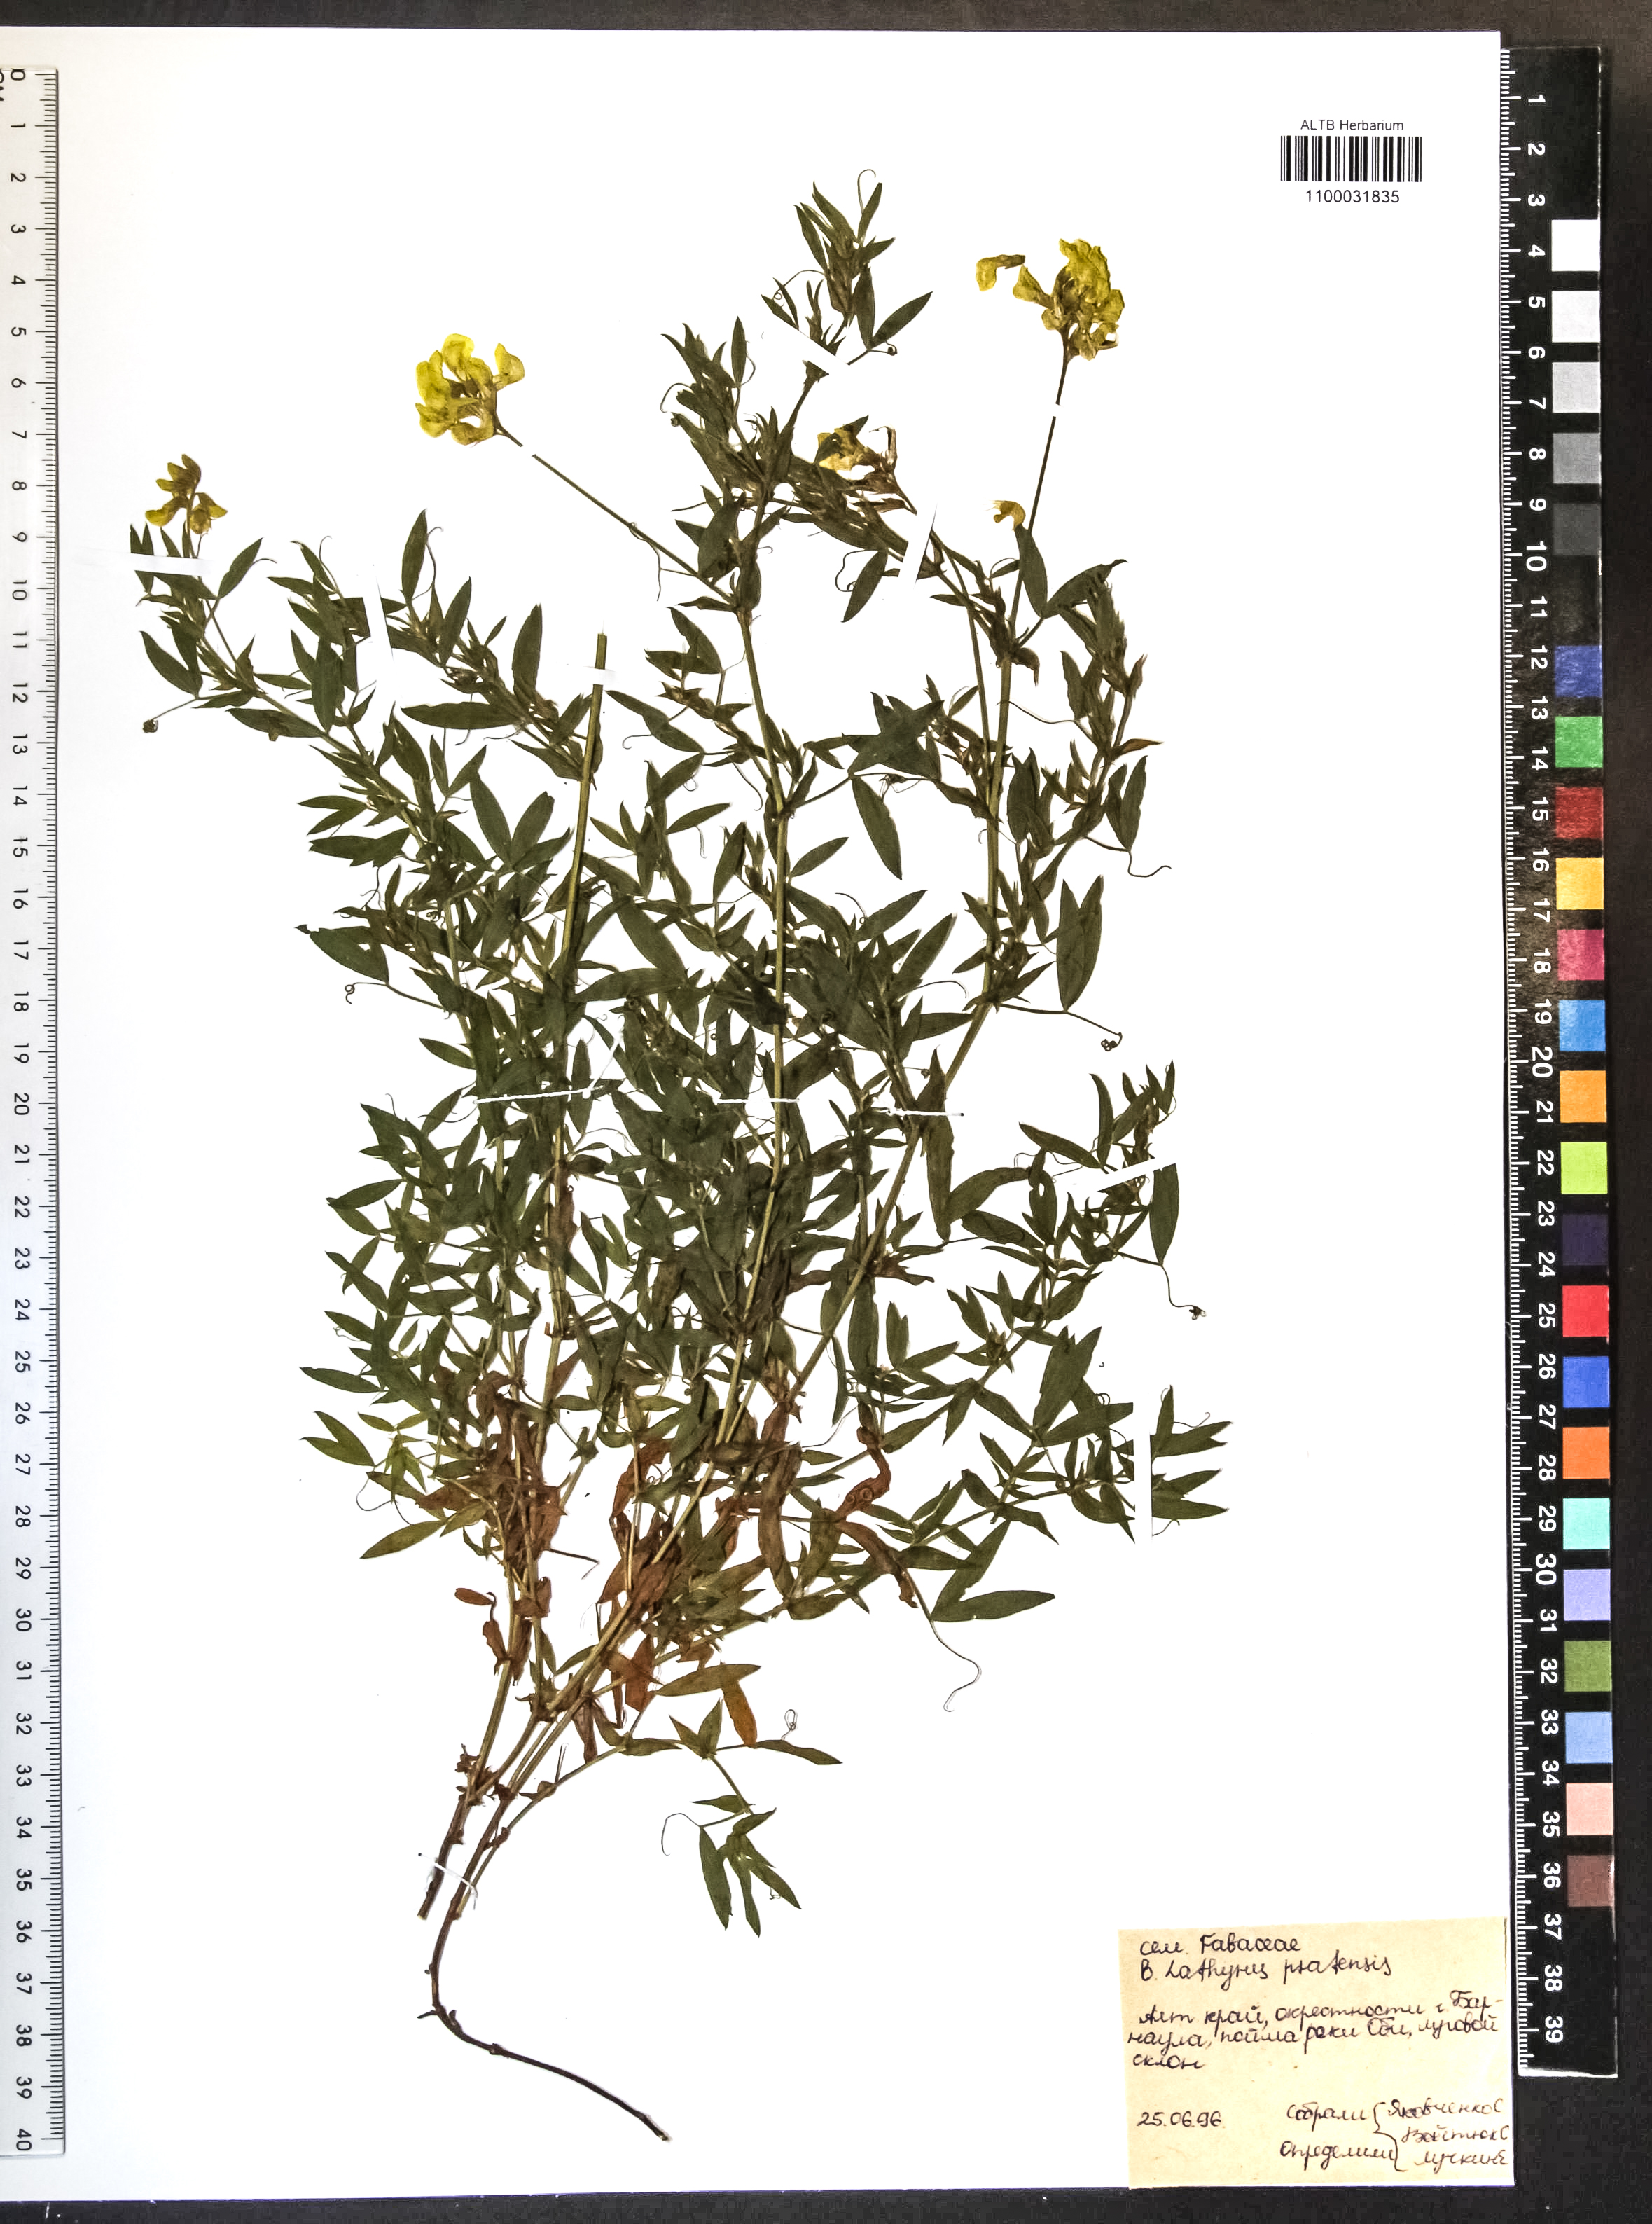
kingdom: Plantae
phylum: Tracheophyta
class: Magnoliopsida
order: Fabales
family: Fabaceae
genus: Lathyrus
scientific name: Lathyrus pratensis
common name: Meadow vetchling
